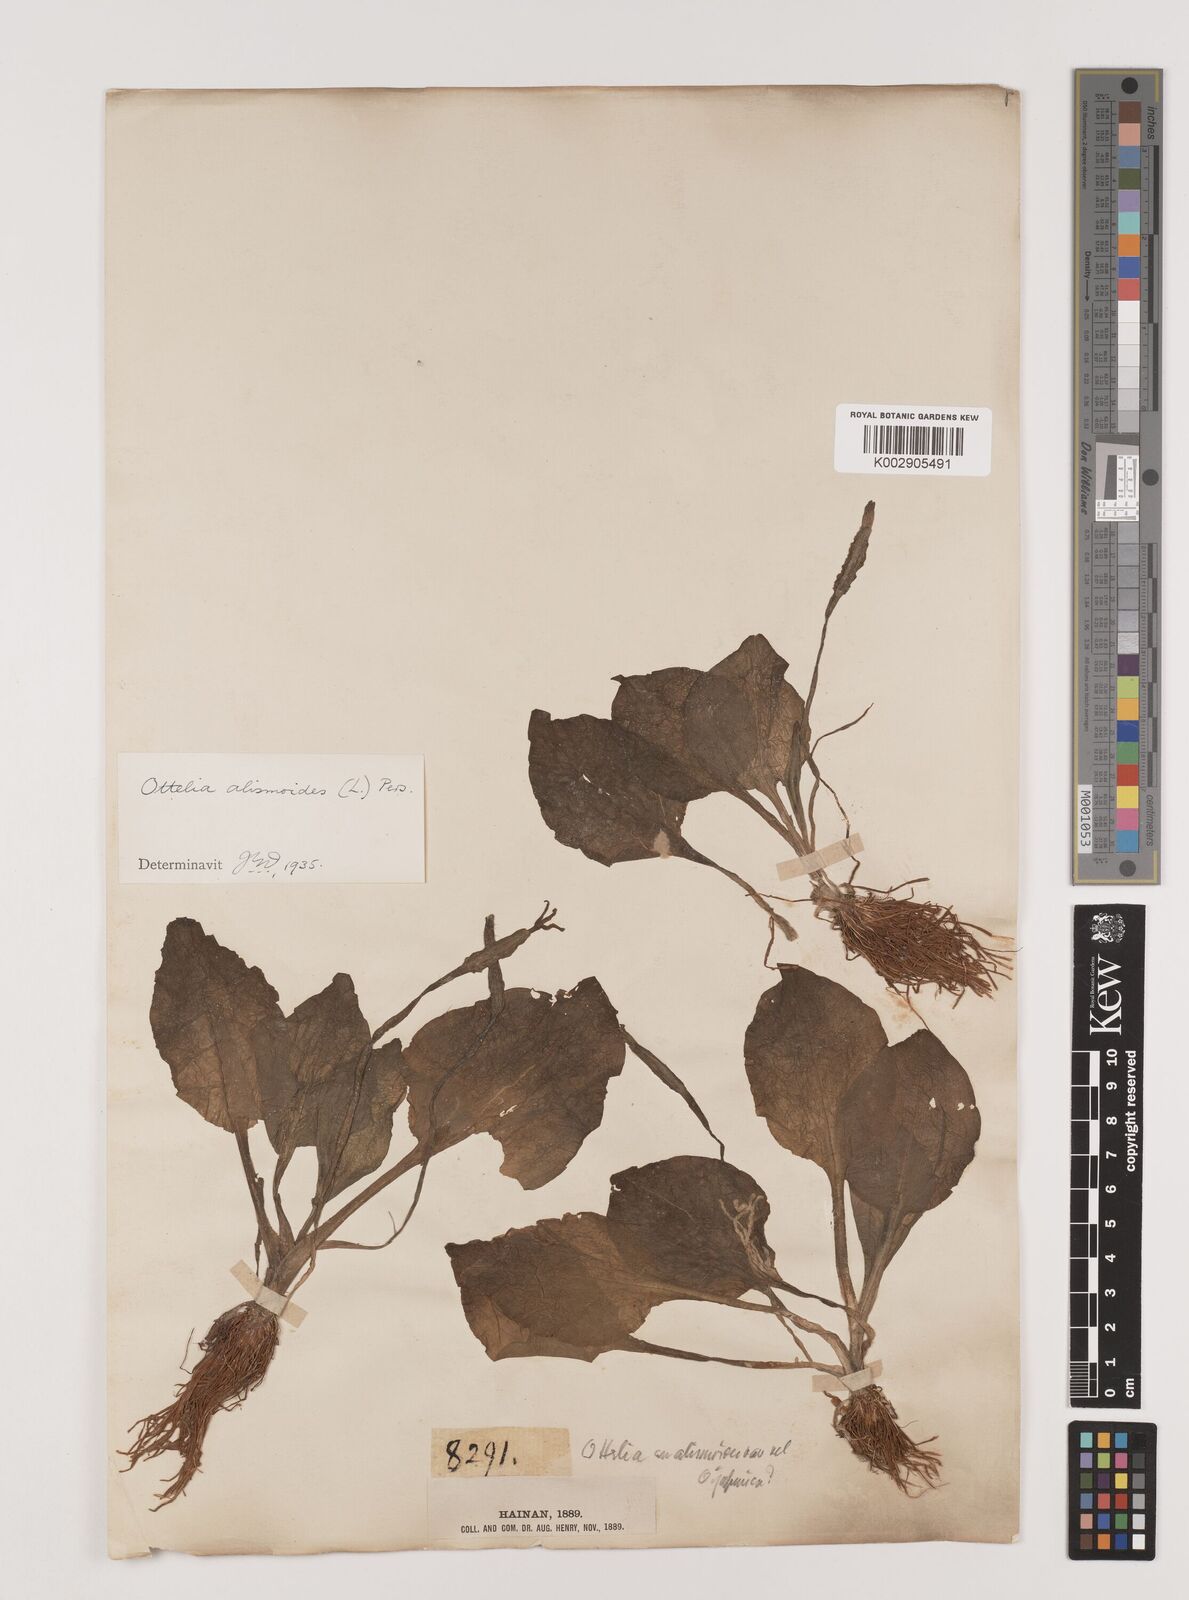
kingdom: Plantae
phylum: Tracheophyta
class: Liliopsida
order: Alismatales
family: Hydrocharitaceae
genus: Ottelia
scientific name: Ottelia alismoides
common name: Duck-lettuce
